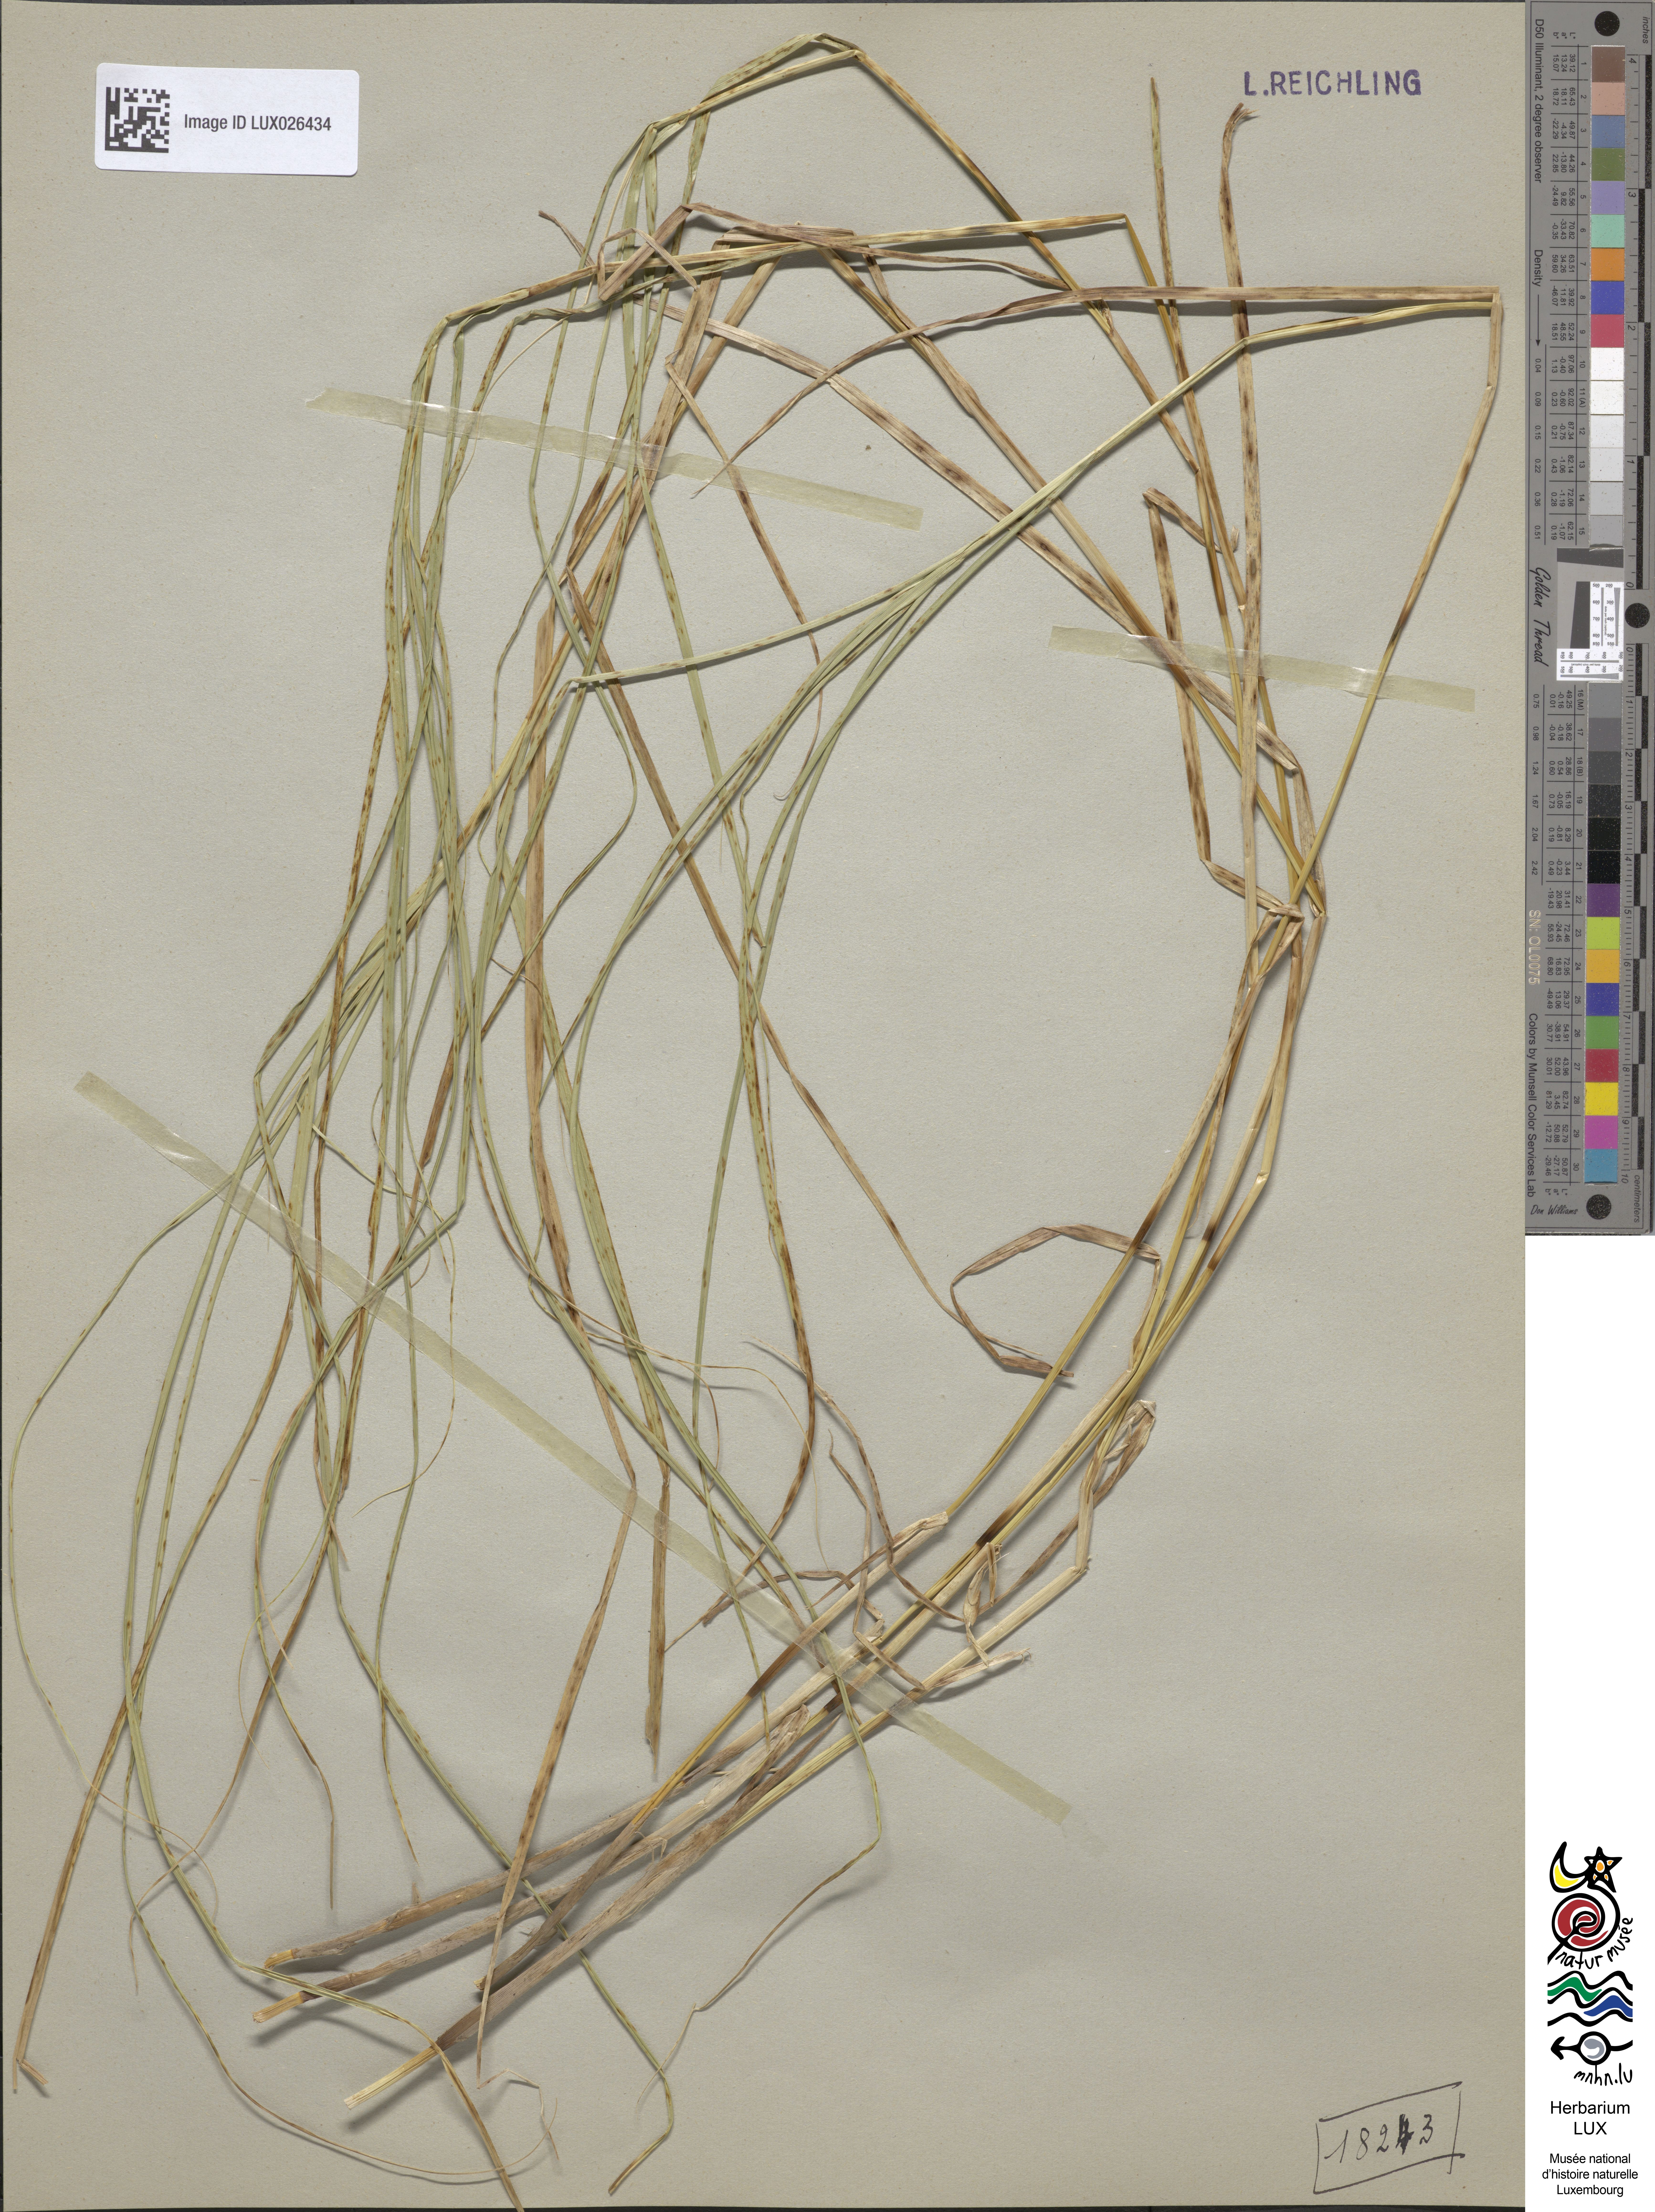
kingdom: Plantae
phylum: Tracheophyta
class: Liliopsida
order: Poales
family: Cyperaceae
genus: Carex
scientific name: Carex disticha
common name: Brown sedge
